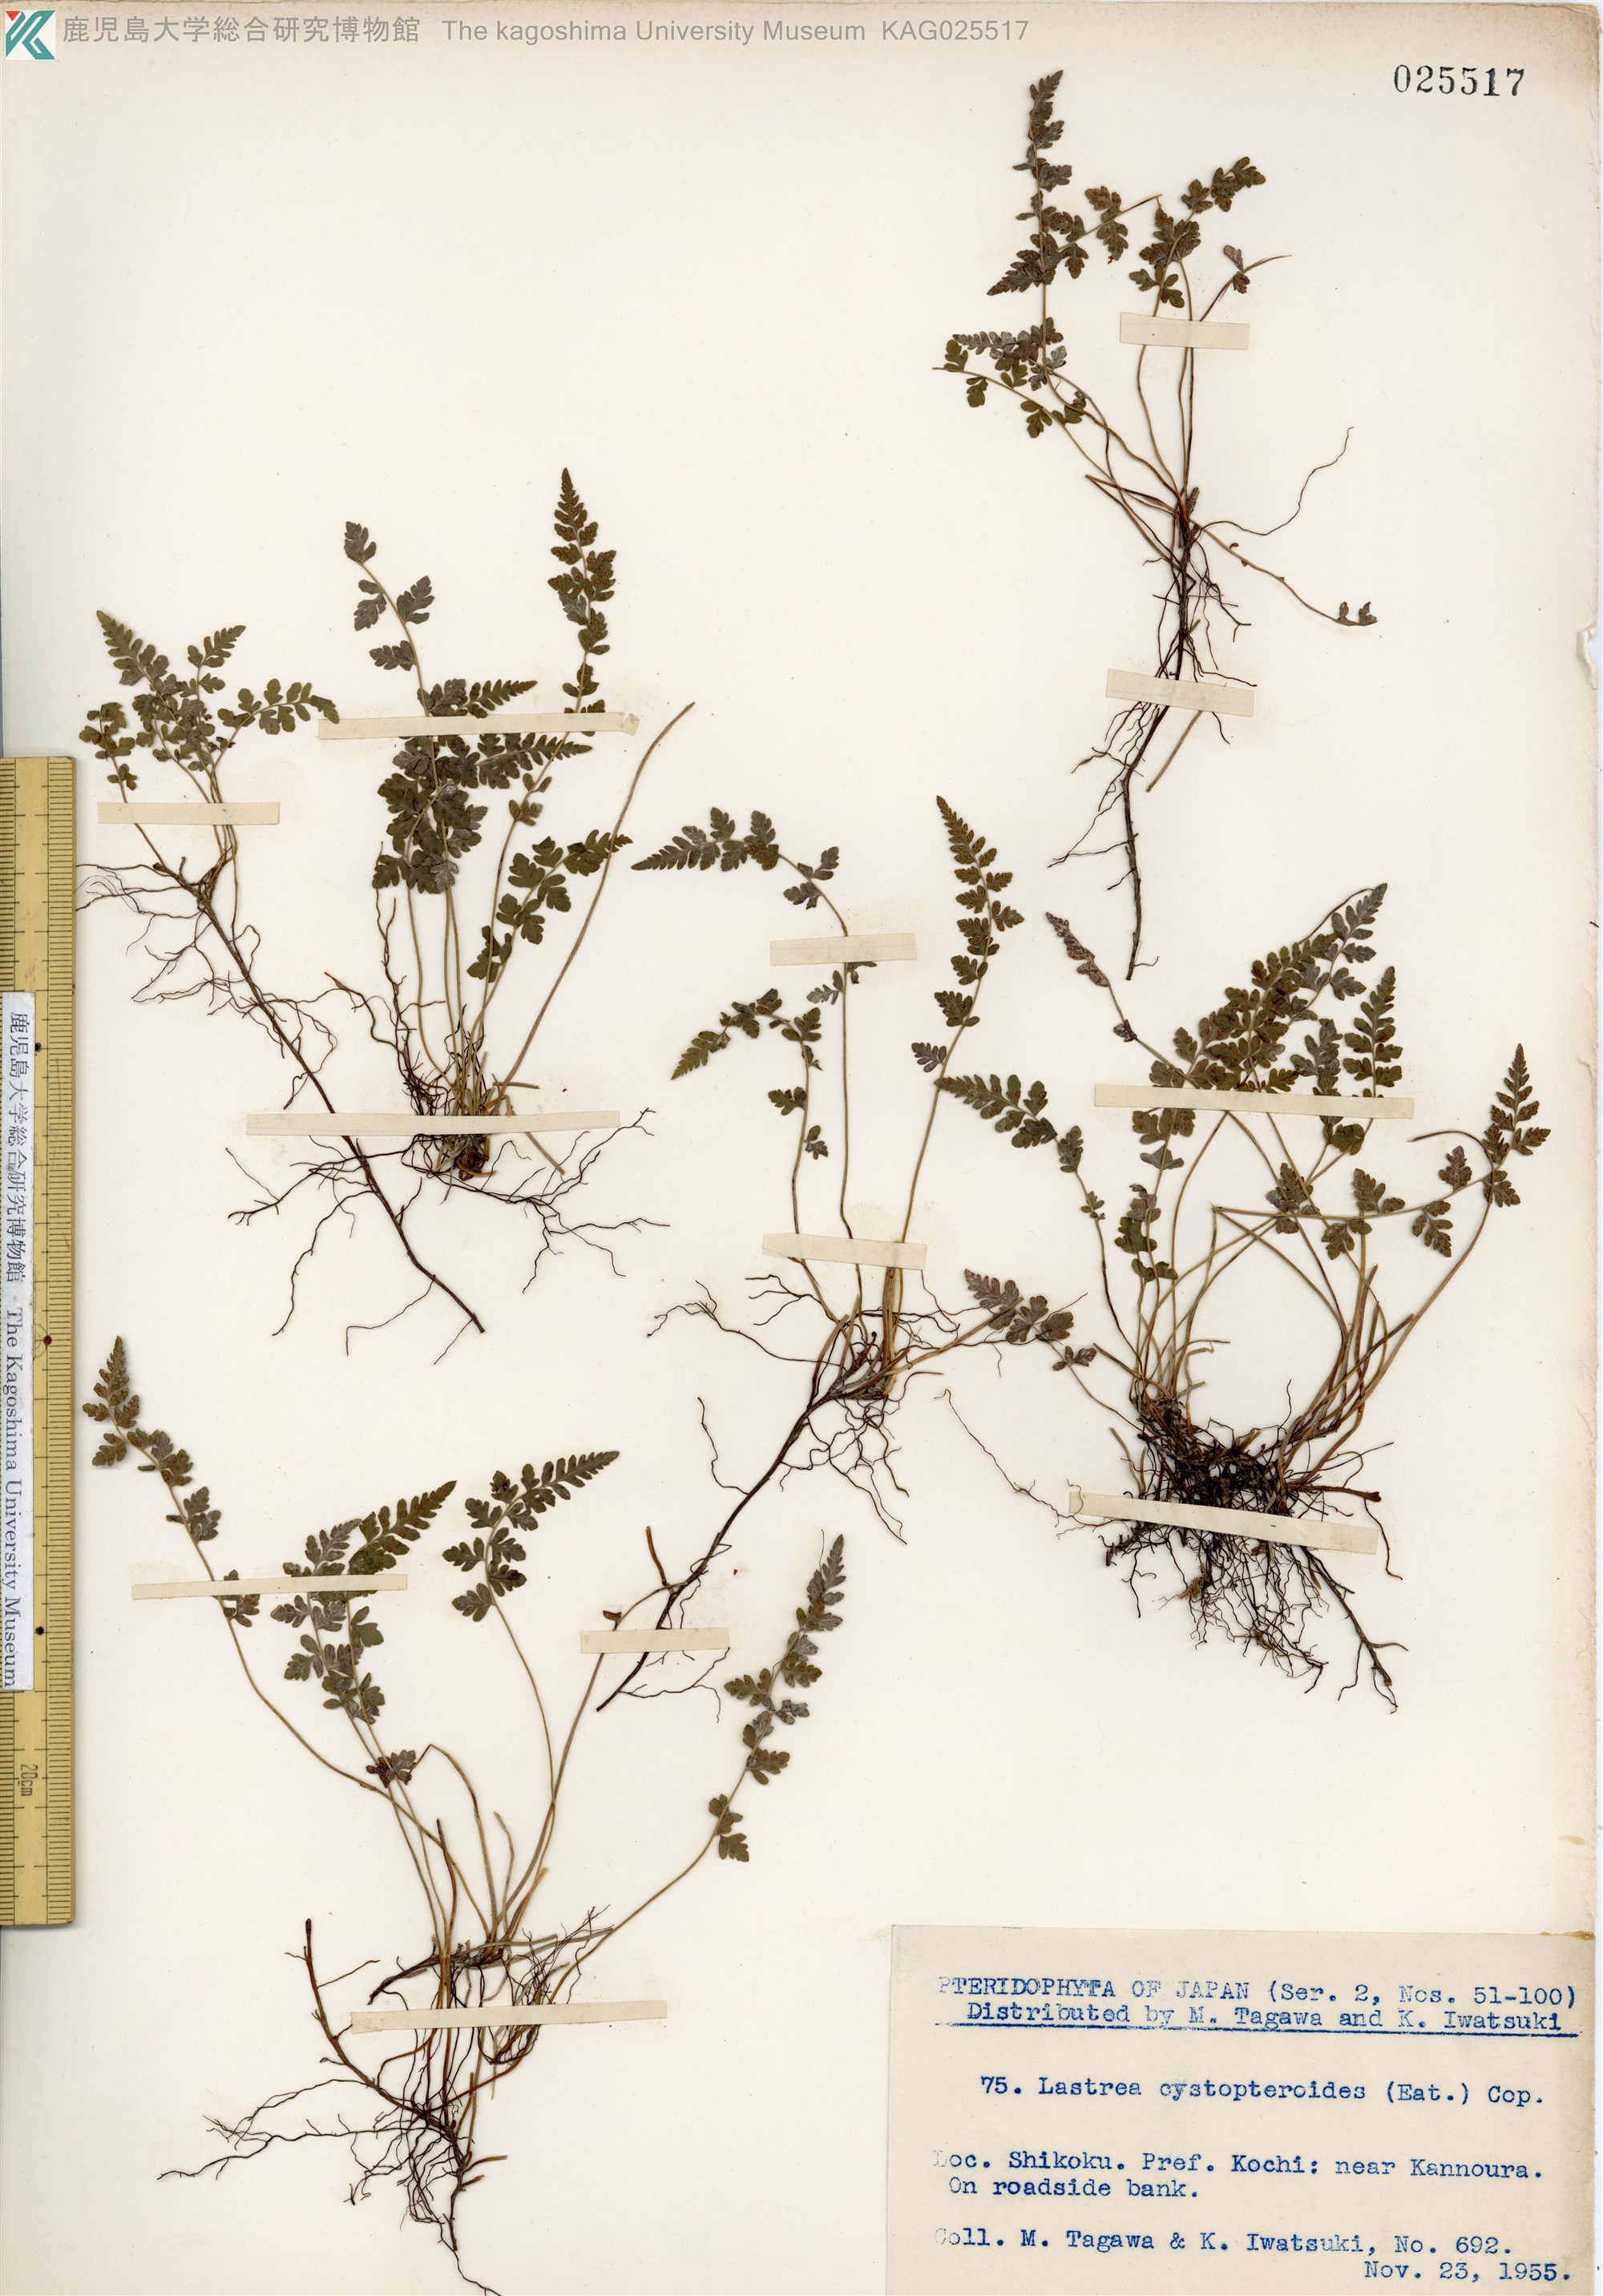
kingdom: Plantae
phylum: Tracheophyta
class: Polypodiopsida
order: Polypodiales
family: Thelypteridaceae
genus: Amauropelta
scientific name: Amauropelta cystopteroides
